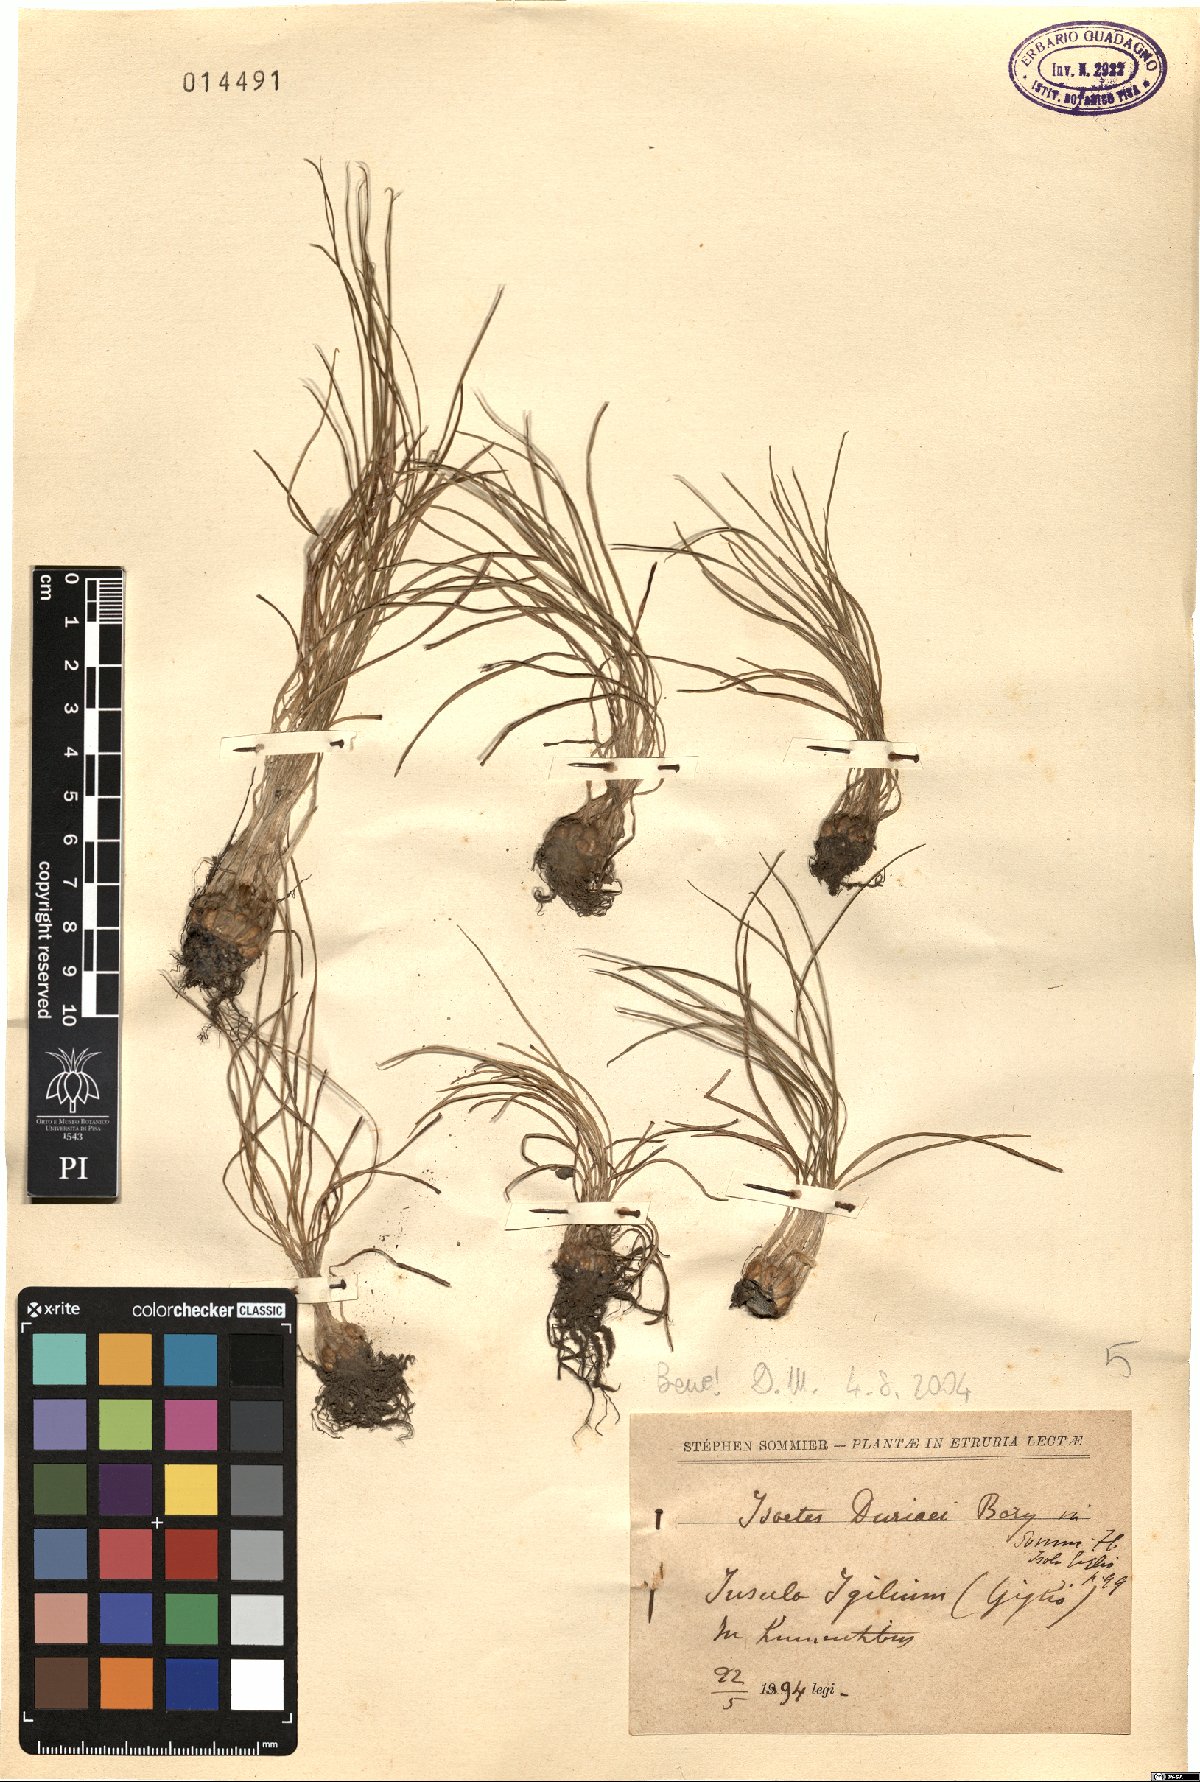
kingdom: Plantae
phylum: Tracheophyta
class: Lycopodiopsida
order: Isoetales
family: Isoetaceae
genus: Isoetes
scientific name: Isoetes duriei
